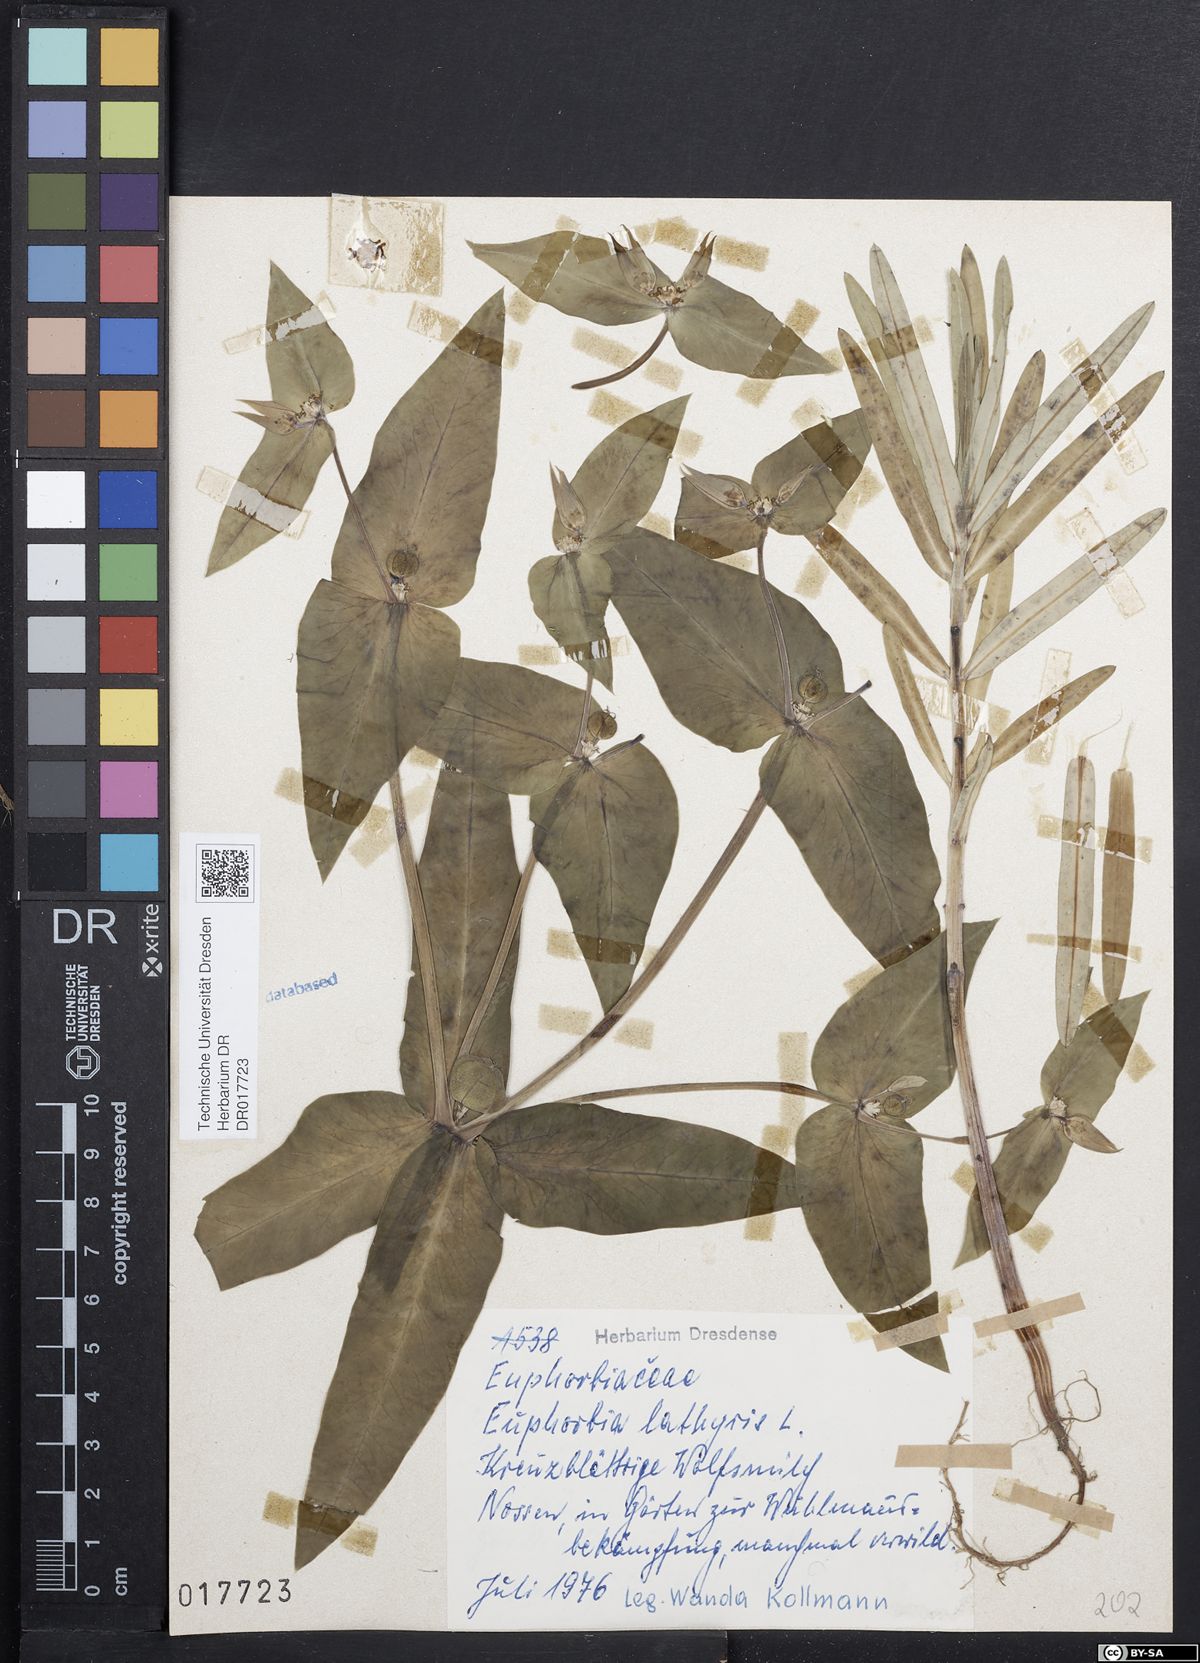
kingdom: Plantae
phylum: Tracheophyta
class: Magnoliopsida
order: Malpighiales
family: Euphorbiaceae
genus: Euphorbia
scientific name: Euphorbia lathyris
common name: Caper spurge
